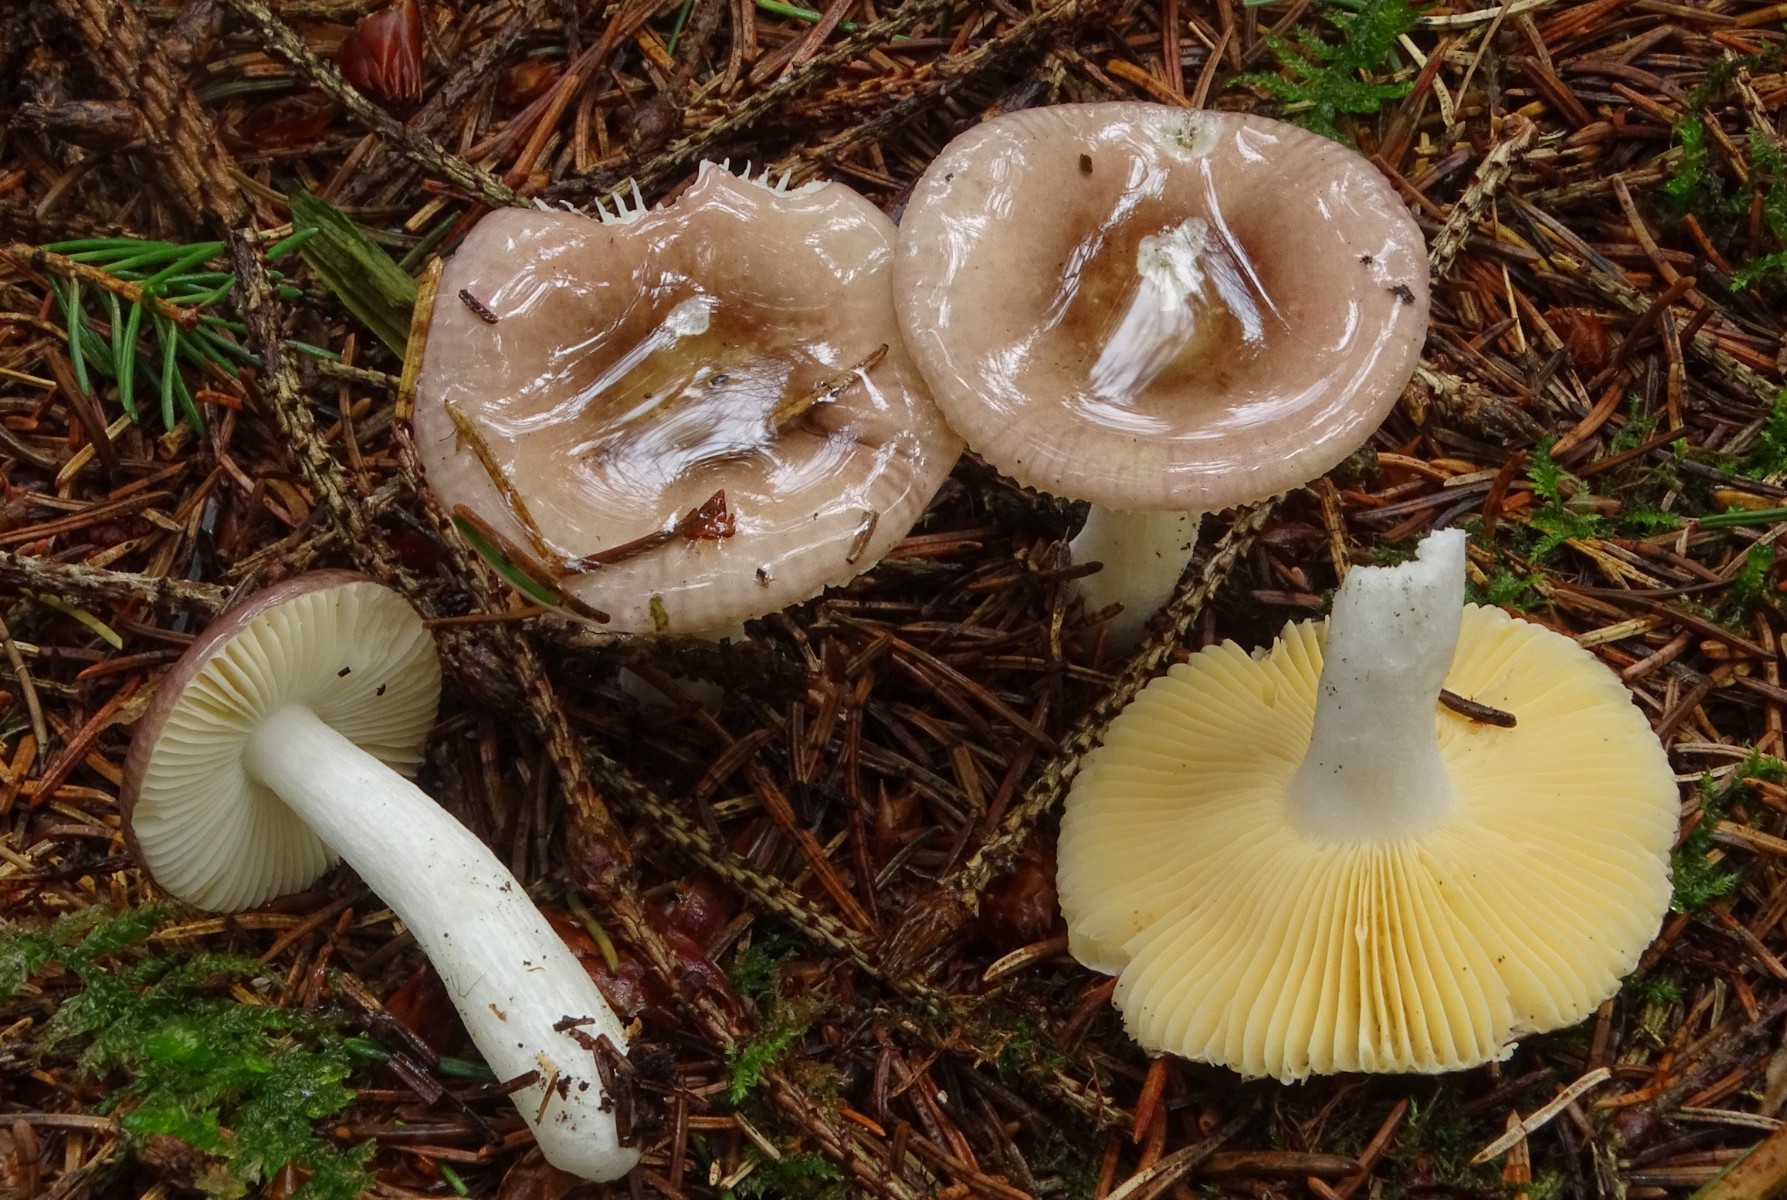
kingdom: Fungi
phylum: Basidiomycota
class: Agaricomycetes
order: Russulales
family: Russulaceae
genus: Russula
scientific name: Russula nauseosa
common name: spinkel skørhat
